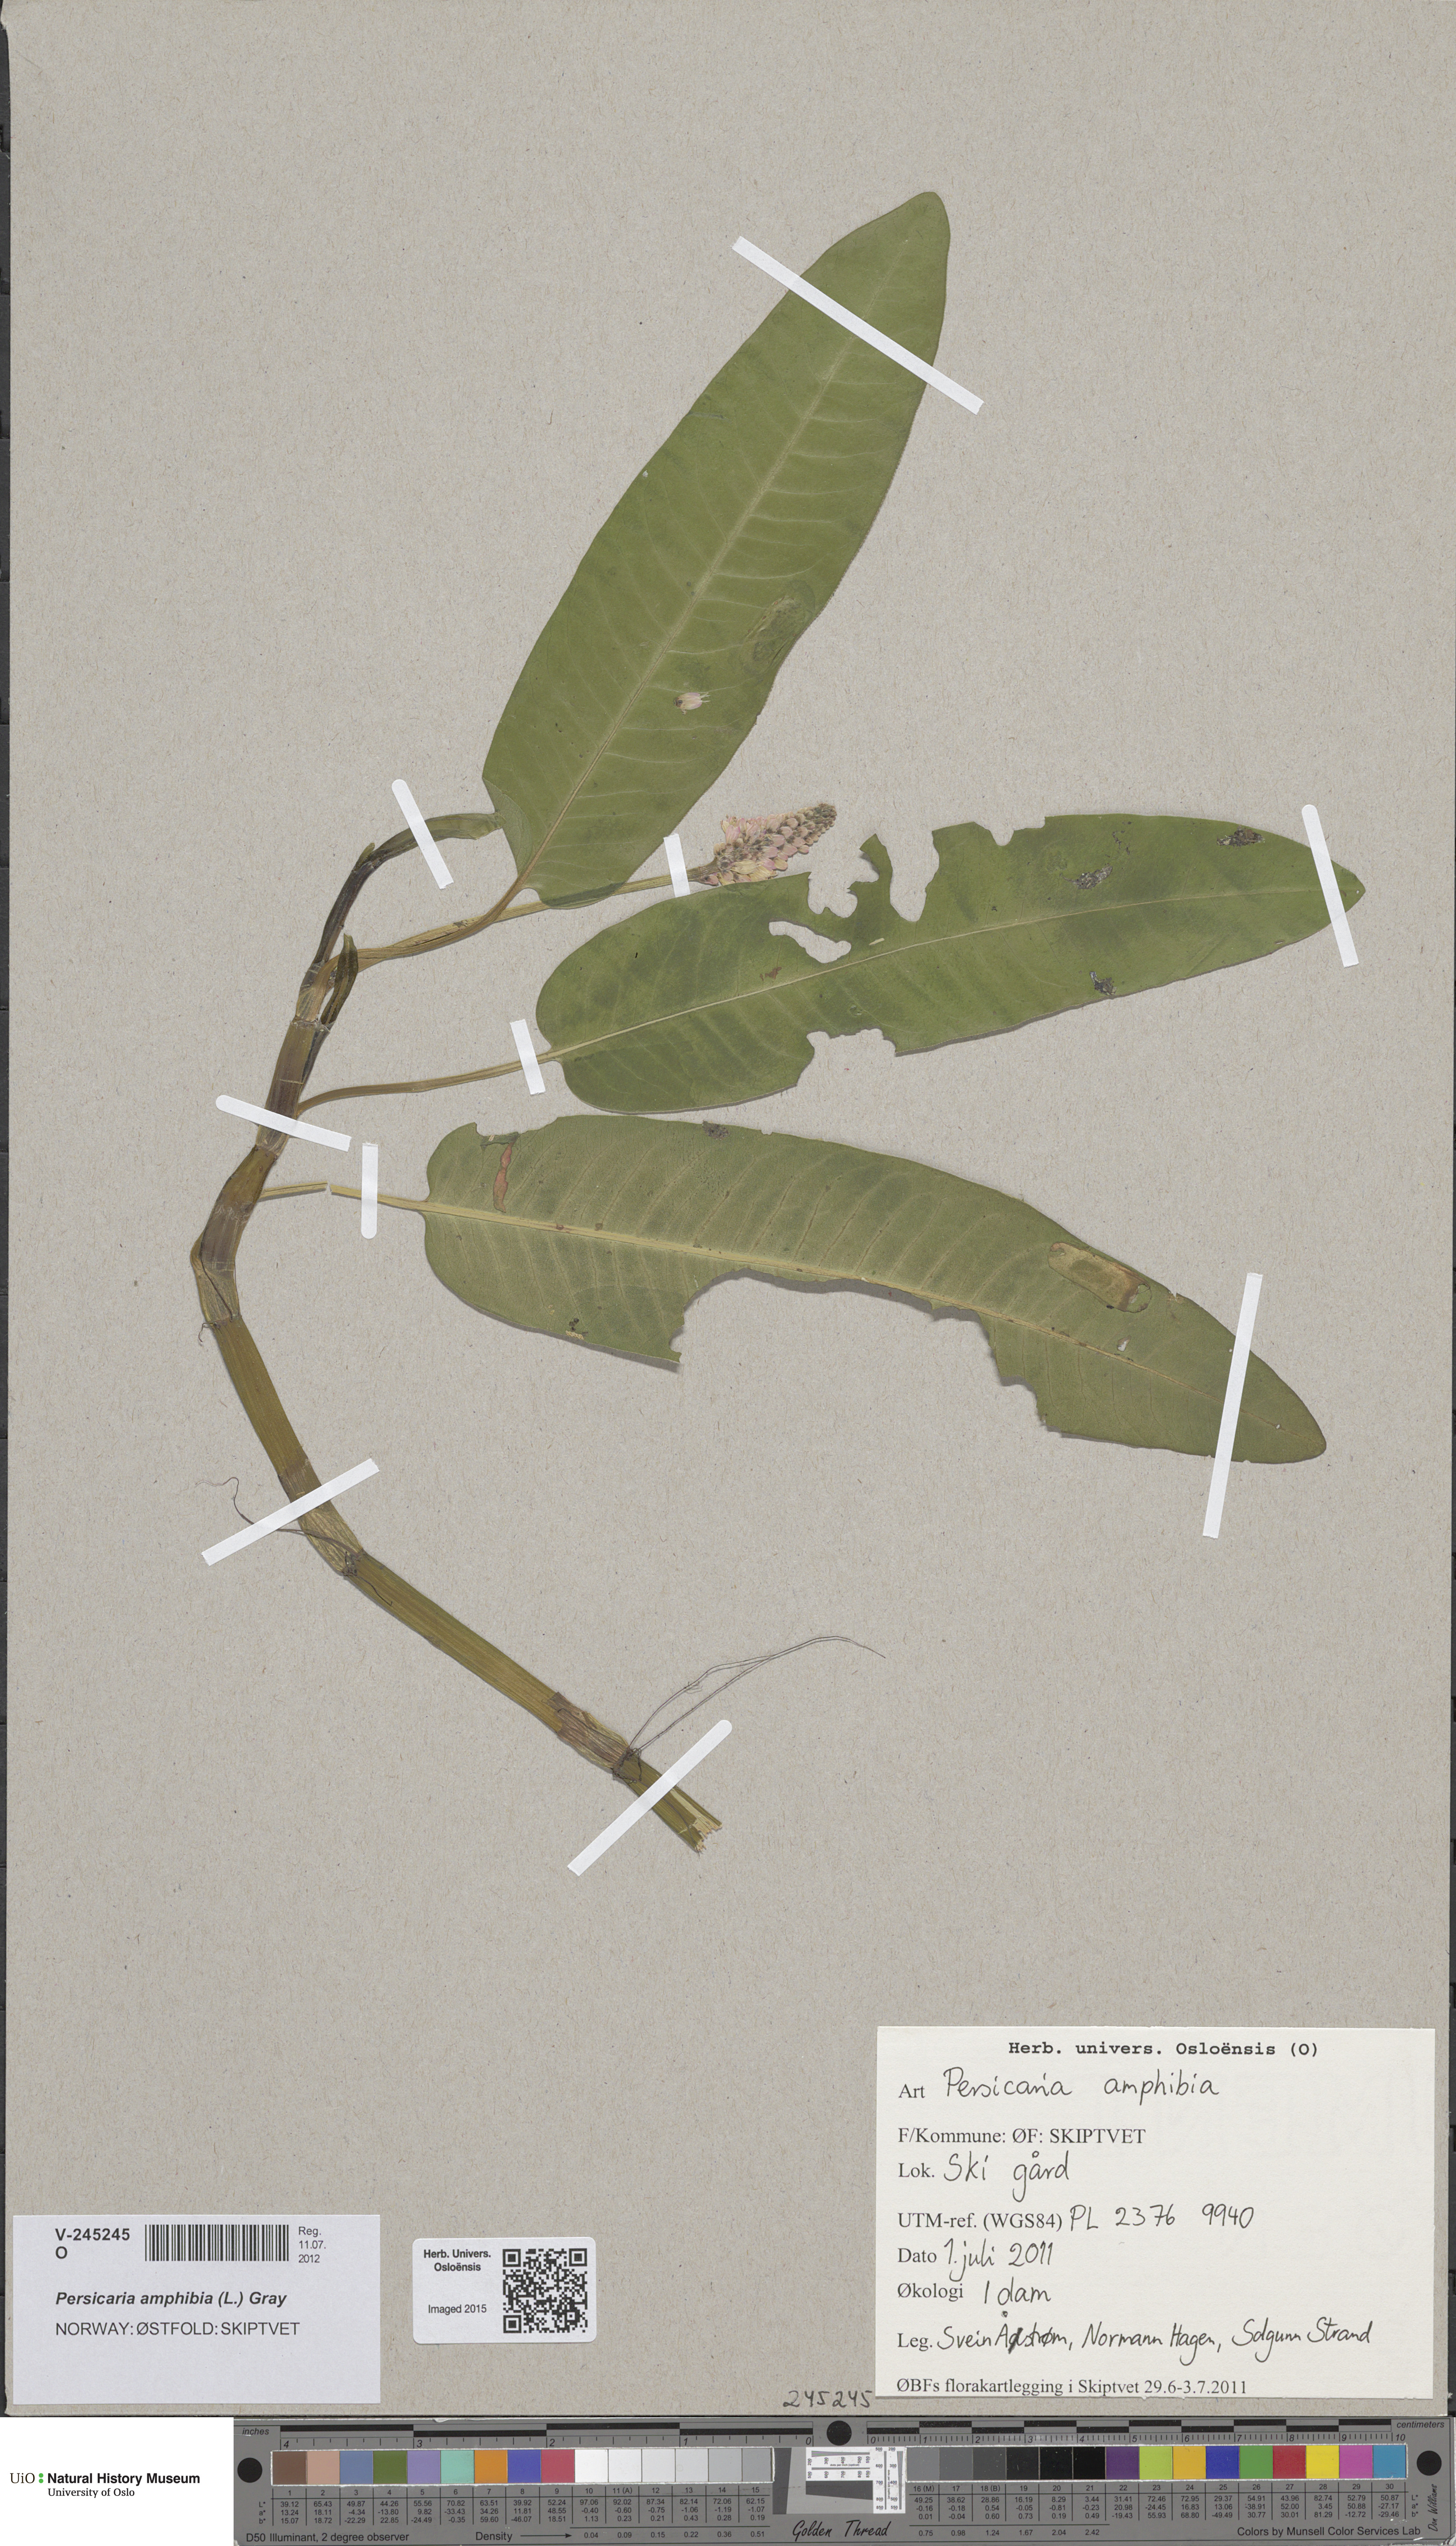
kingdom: Plantae
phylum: Tracheophyta
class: Magnoliopsida
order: Caryophyllales
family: Polygonaceae
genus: Persicaria
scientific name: Persicaria amphibia
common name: Amphibious bistort
